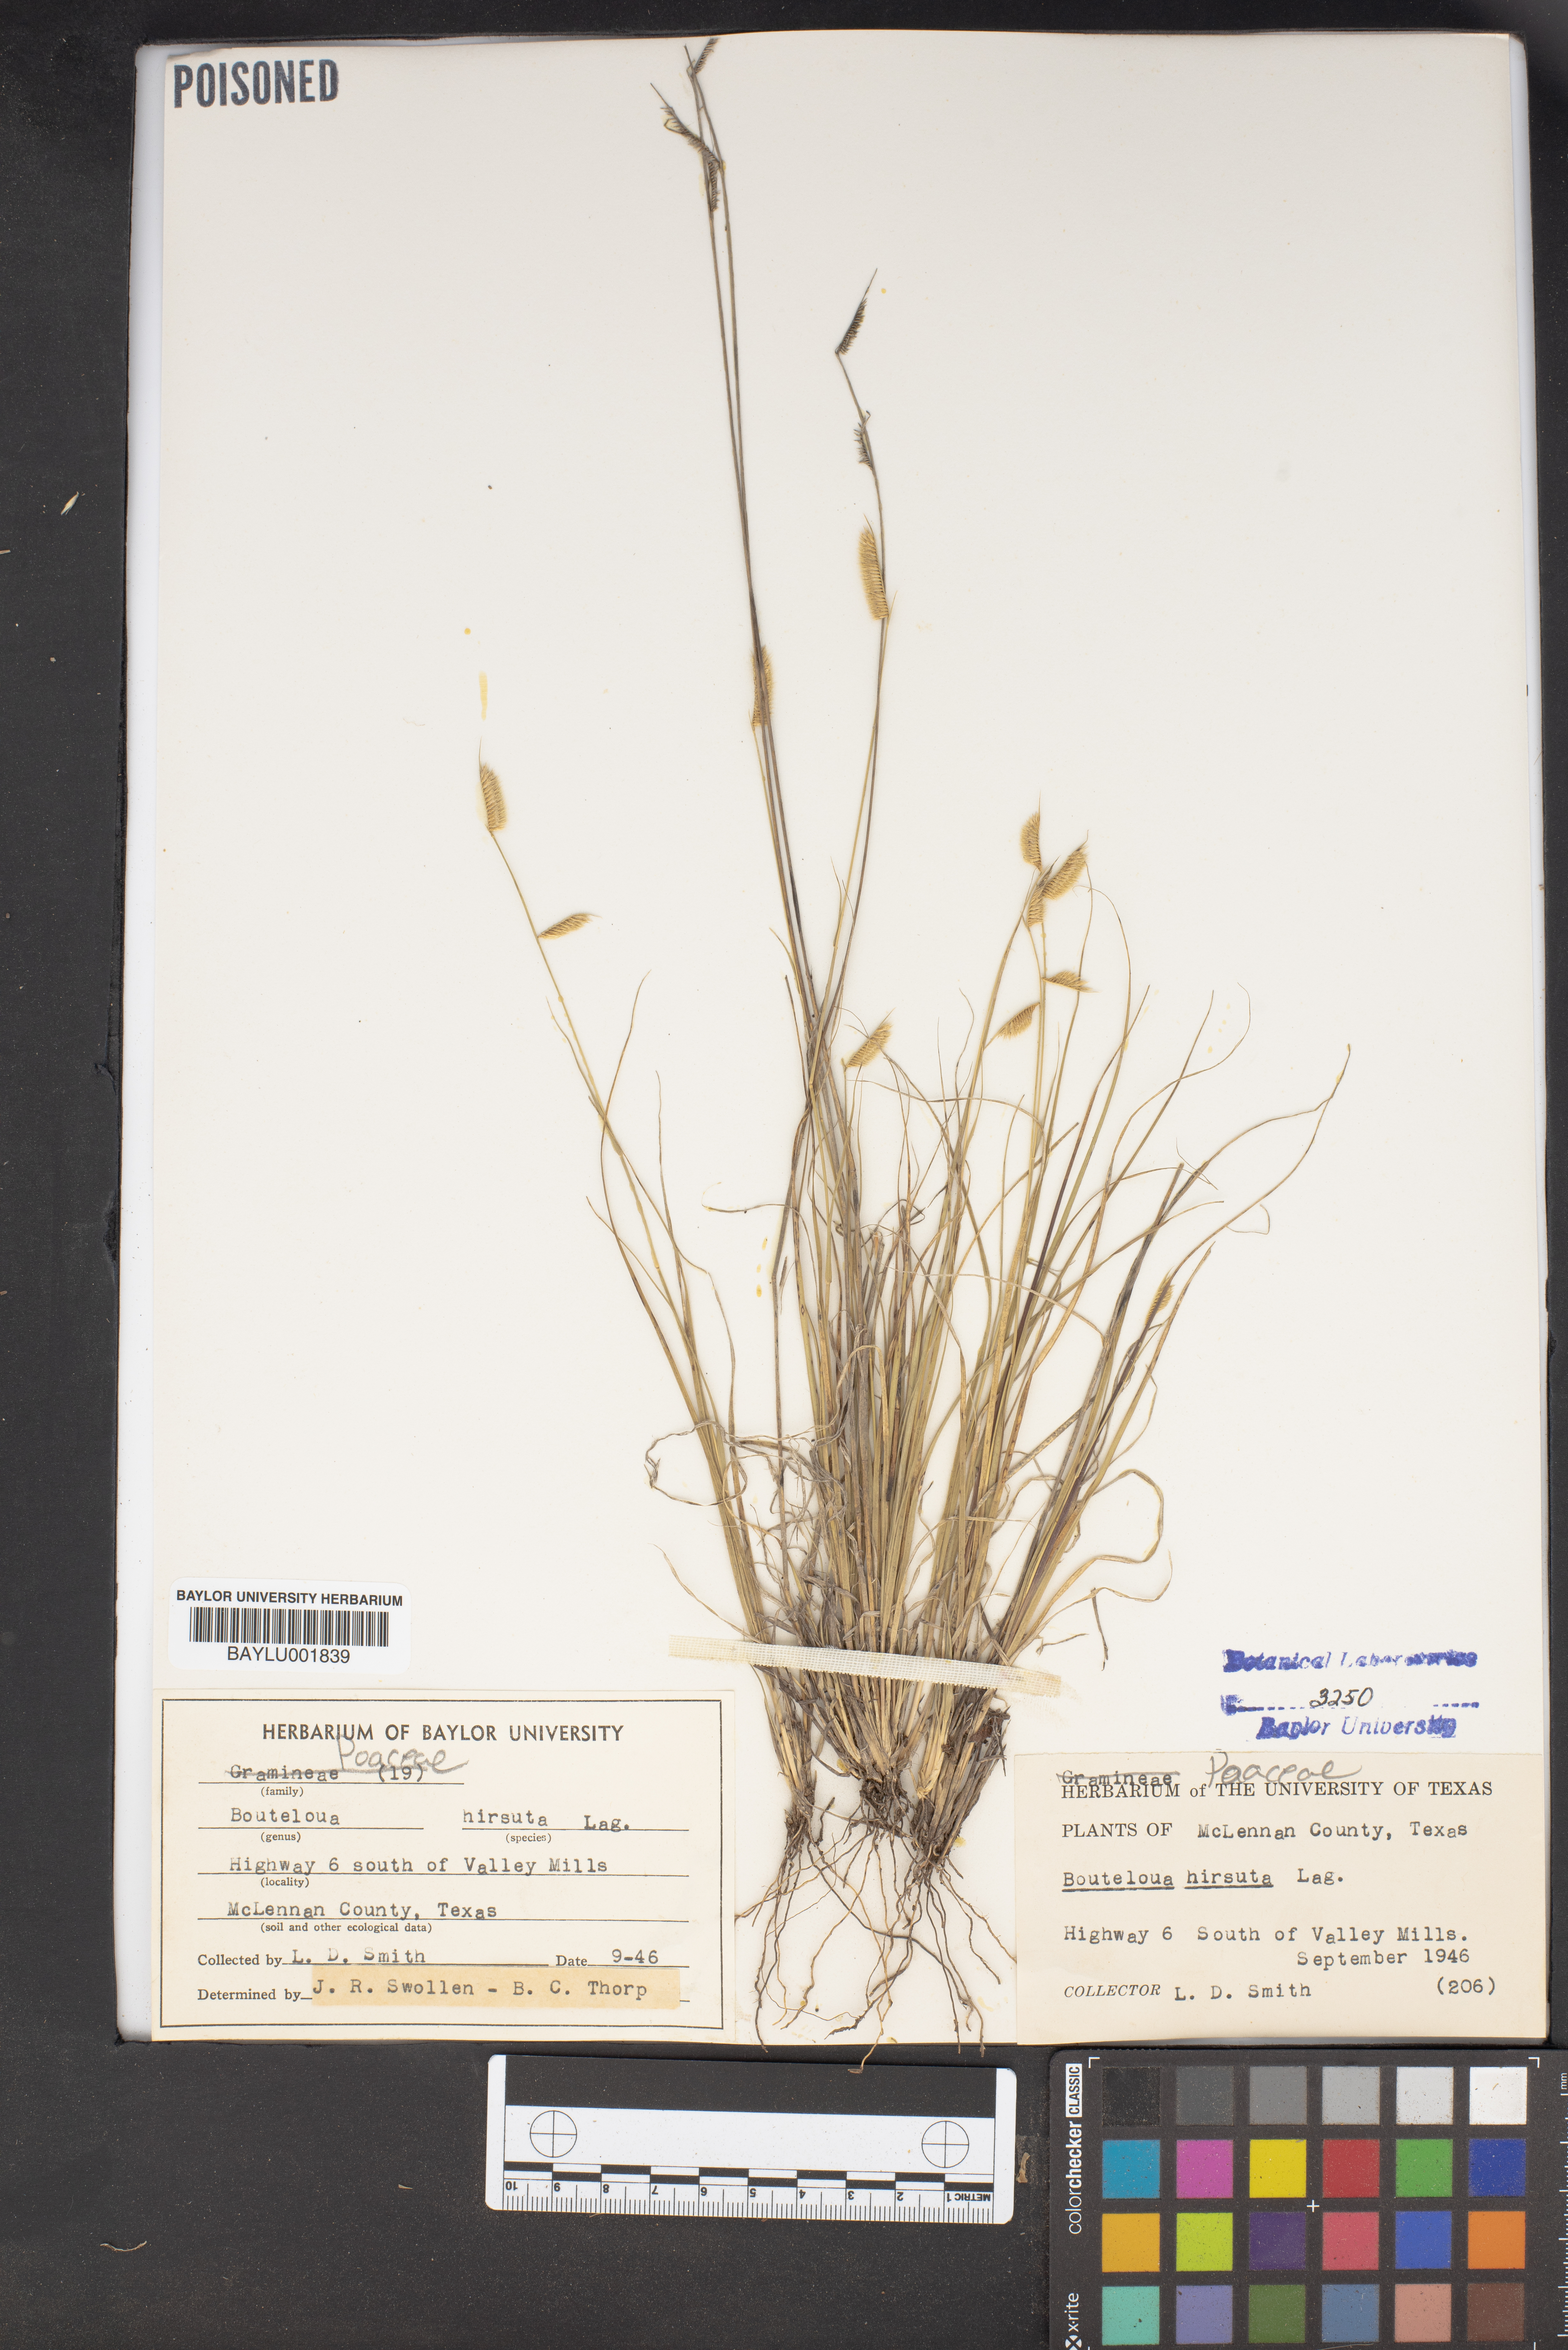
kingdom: Plantae
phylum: Tracheophyta
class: Liliopsida
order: Poales
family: Poaceae
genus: Bouteloua
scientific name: Bouteloua hirsuta
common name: Hairy grama
